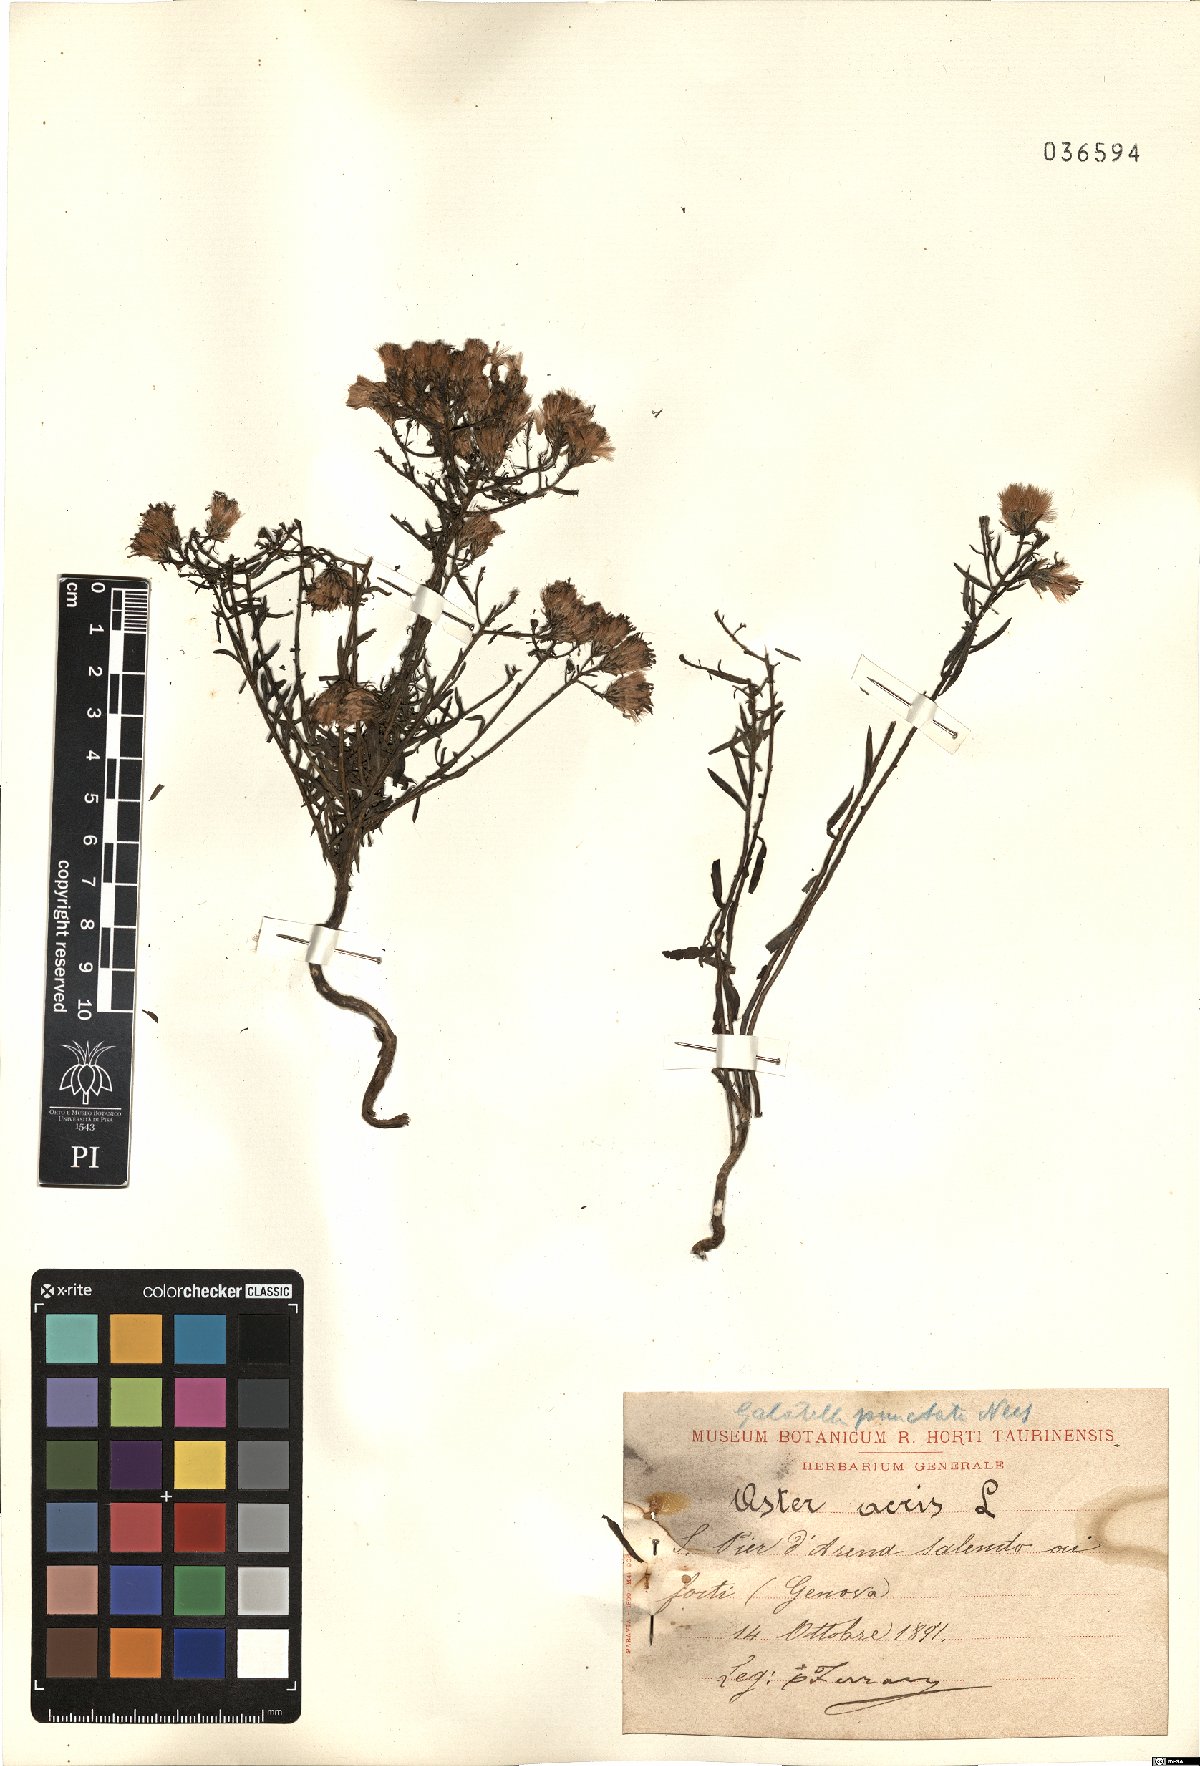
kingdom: Plantae
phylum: Tracheophyta
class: Magnoliopsida
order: Asterales
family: Asteraceae
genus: Galatella
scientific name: Galatella sedifolia
